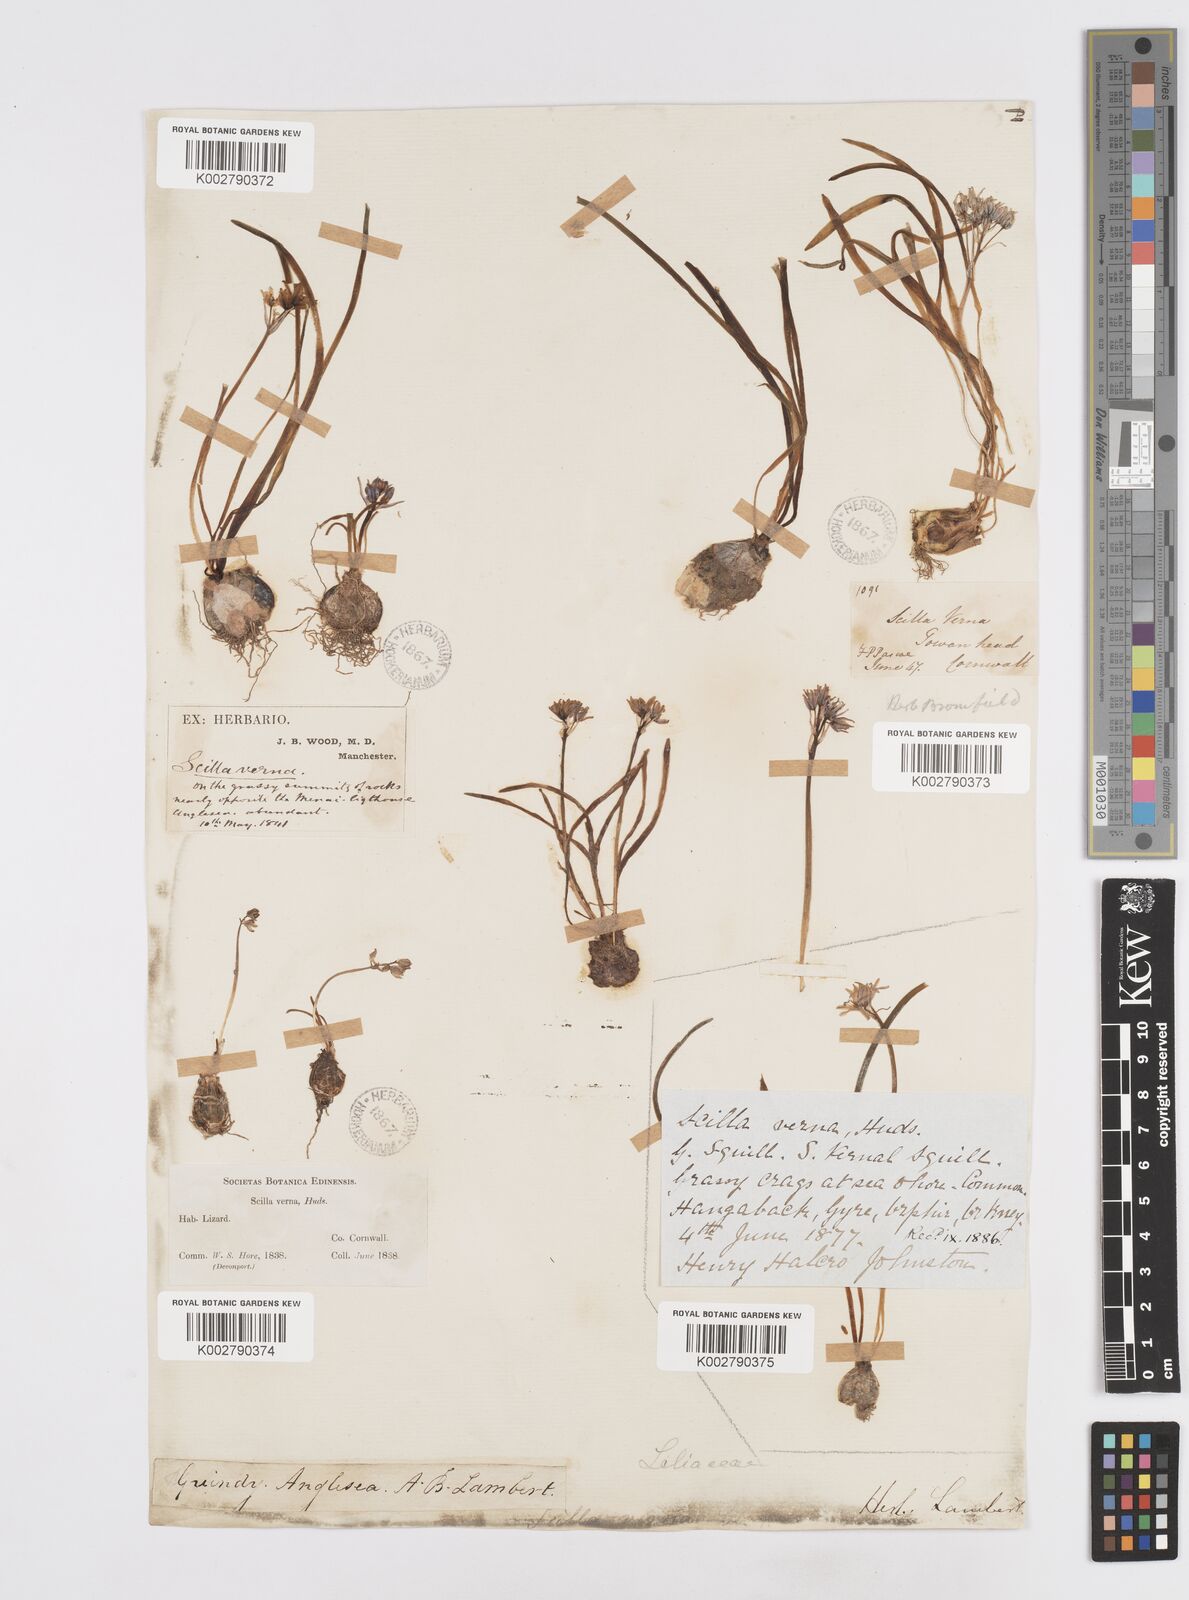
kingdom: Plantae
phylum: Tracheophyta
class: Liliopsida
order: Asparagales
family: Asparagaceae
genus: Scilla
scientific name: Scilla verna
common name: Spring squill
